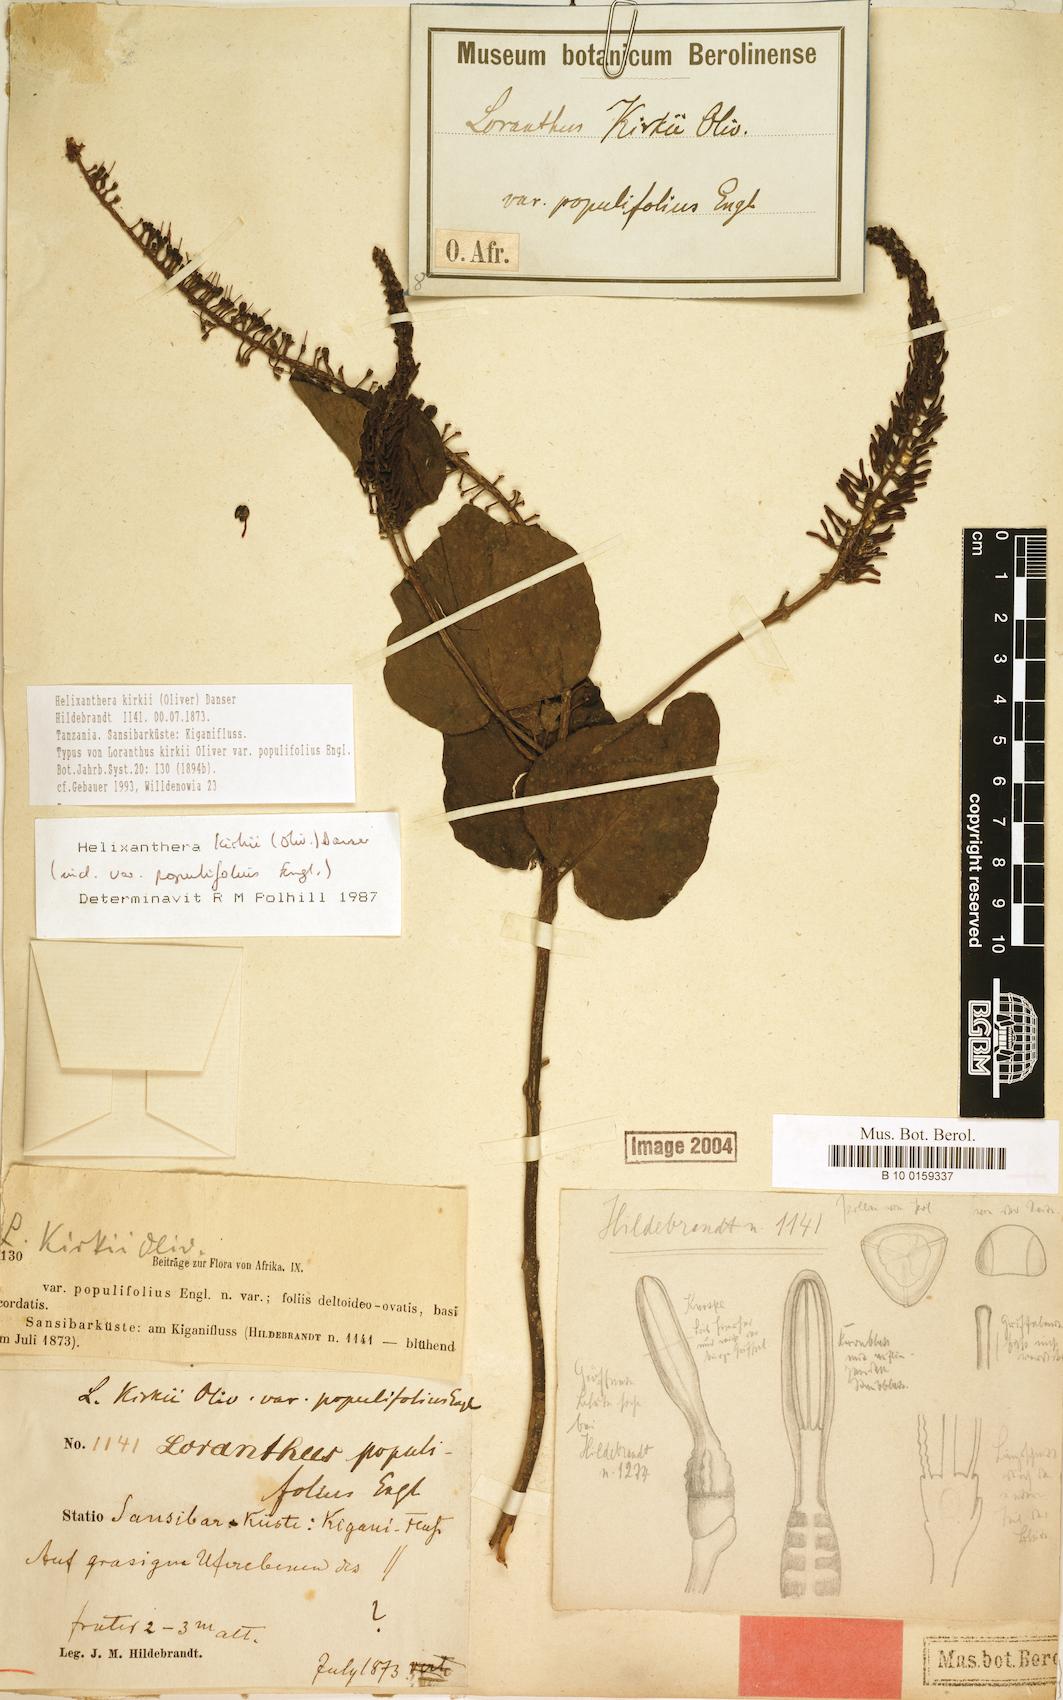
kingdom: Plantae
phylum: Tracheophyta
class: Magnoliopsida
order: Santalales
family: Loranthaceae
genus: Helixanthera
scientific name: Helixanthera kirkii
